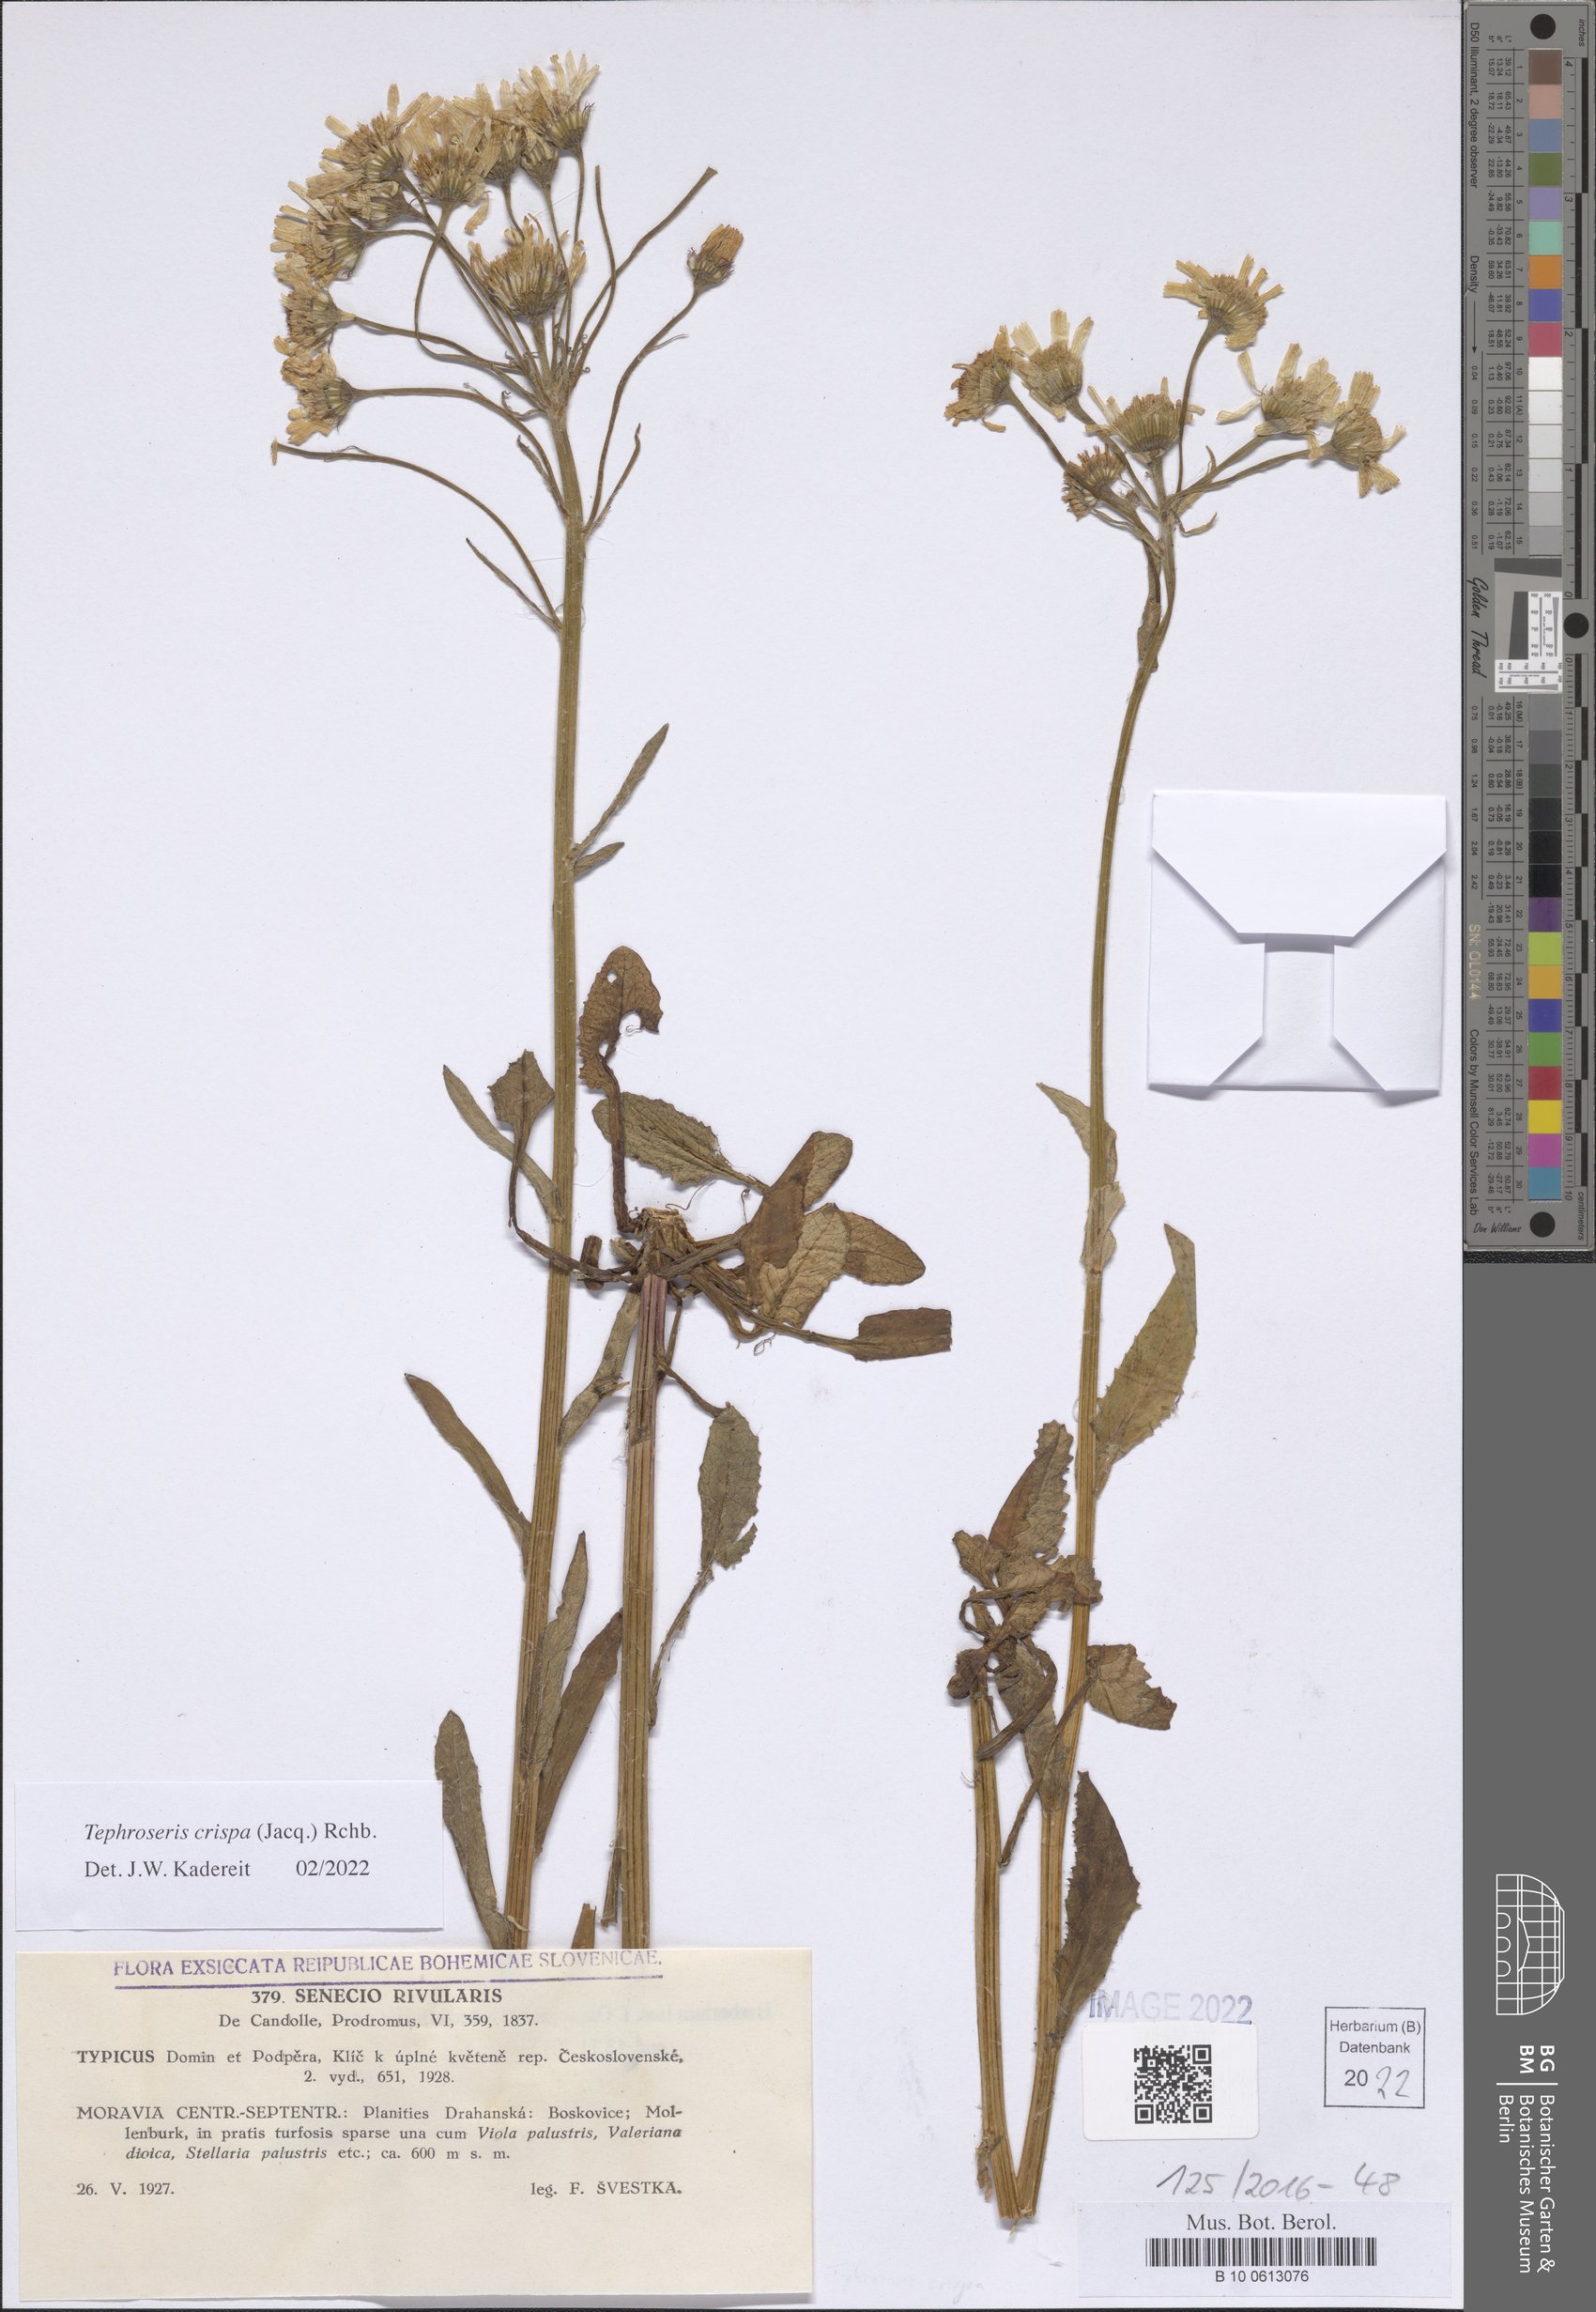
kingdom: Plantae
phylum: Tracheophyta
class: Magnoliopsida
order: Asterales
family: Asteraceae
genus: Tephroseris
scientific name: Tephroseris crispa
